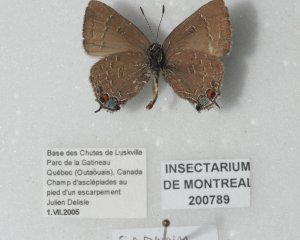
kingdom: Animalia
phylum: Arthropoda
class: Insecta
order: Lepidoptera
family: Lycaenidae
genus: Satyrium
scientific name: Satyrium calanus
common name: Banded Hairstreak
